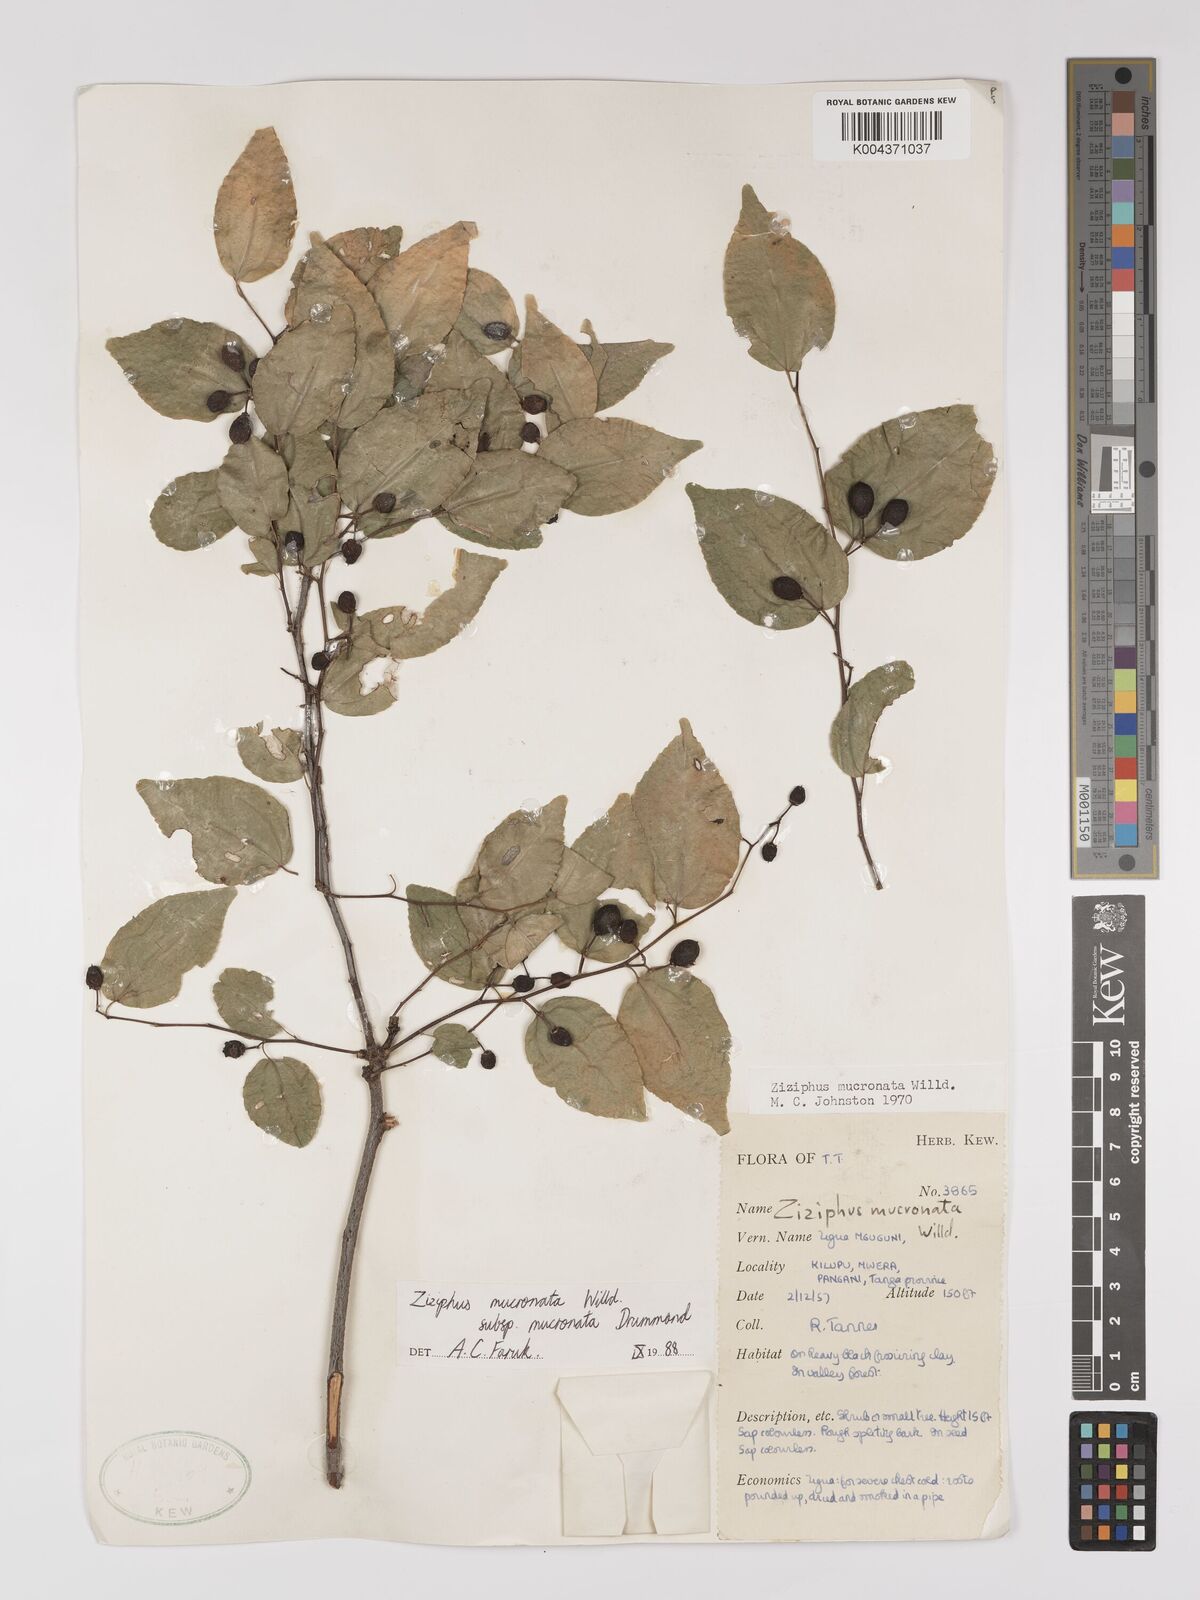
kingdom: Plantae
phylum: Tracheophyta
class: Magnoliopsida
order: Rosales
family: Rhamnaceae
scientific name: Rhamnaceae
